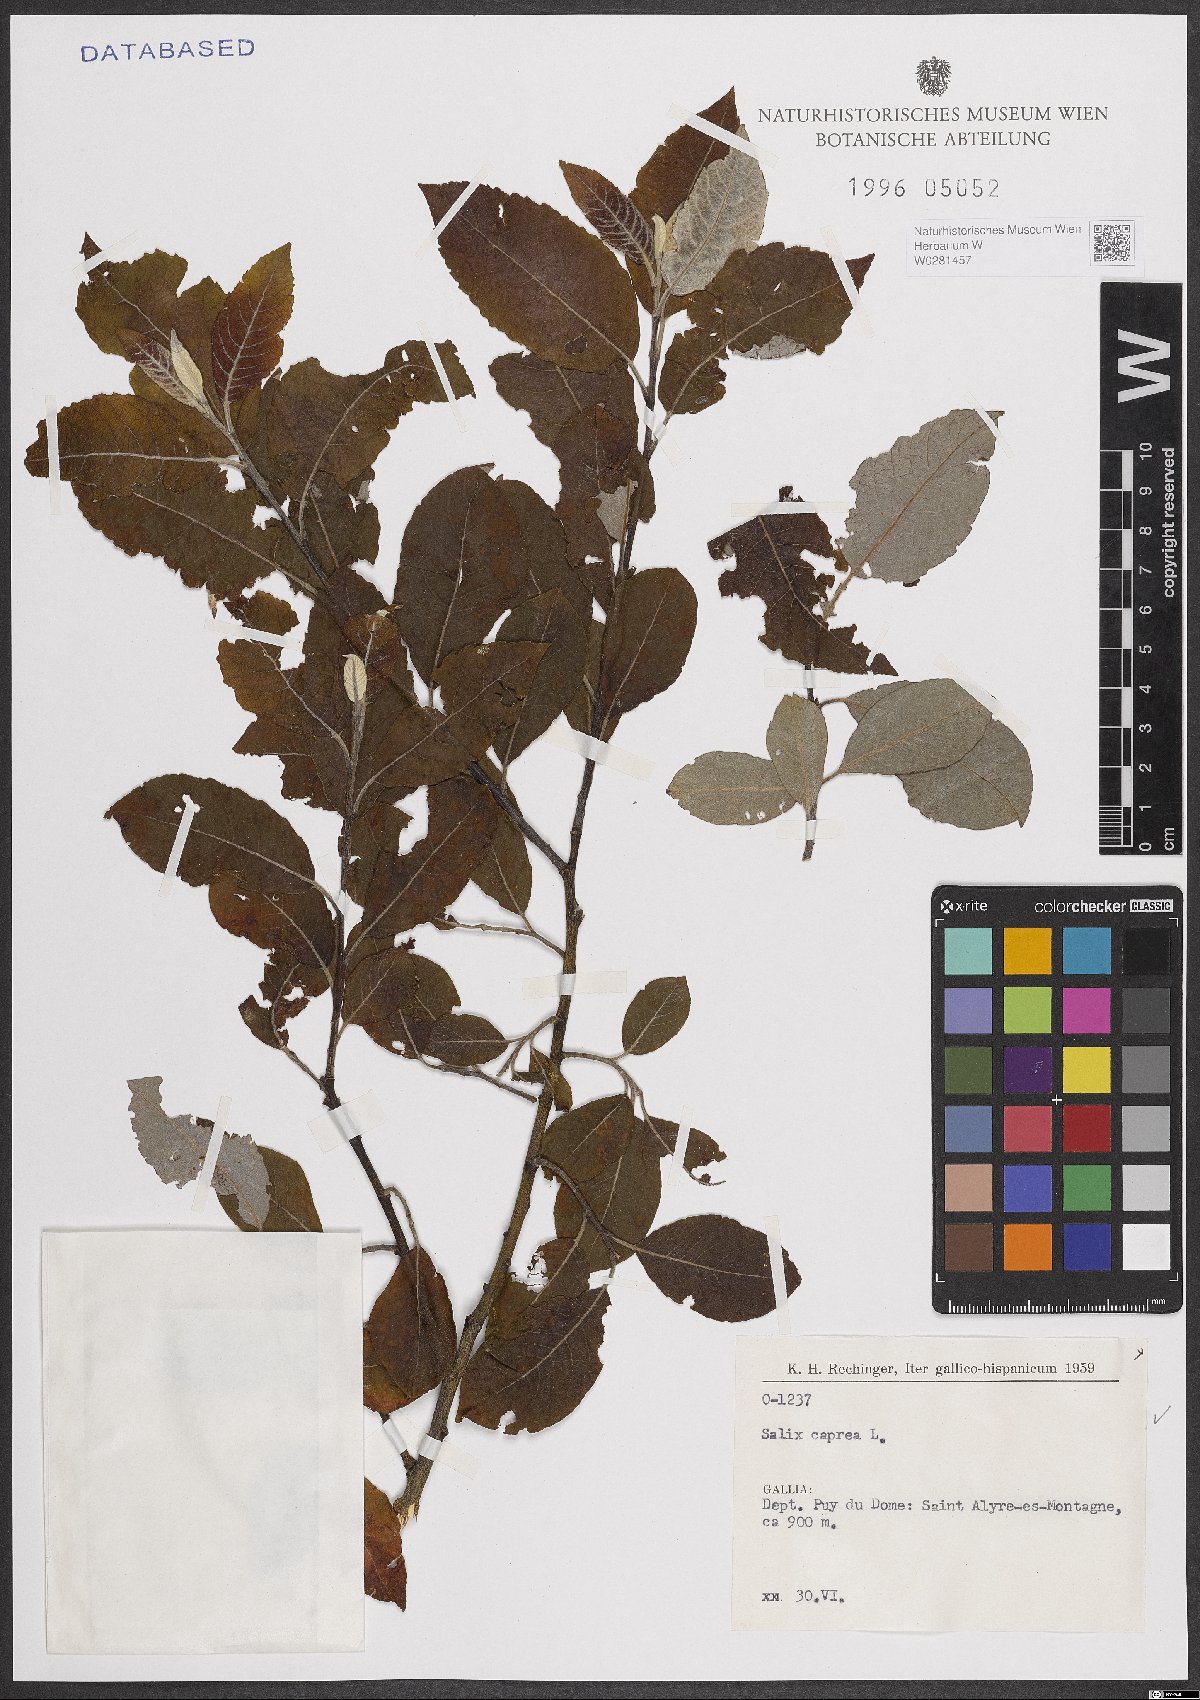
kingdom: Plantae
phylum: Tracheophyta
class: Magnoliopsida
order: Malpighiales
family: Salicaceae
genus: Salix
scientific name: Salix caprea
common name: Goat willow
